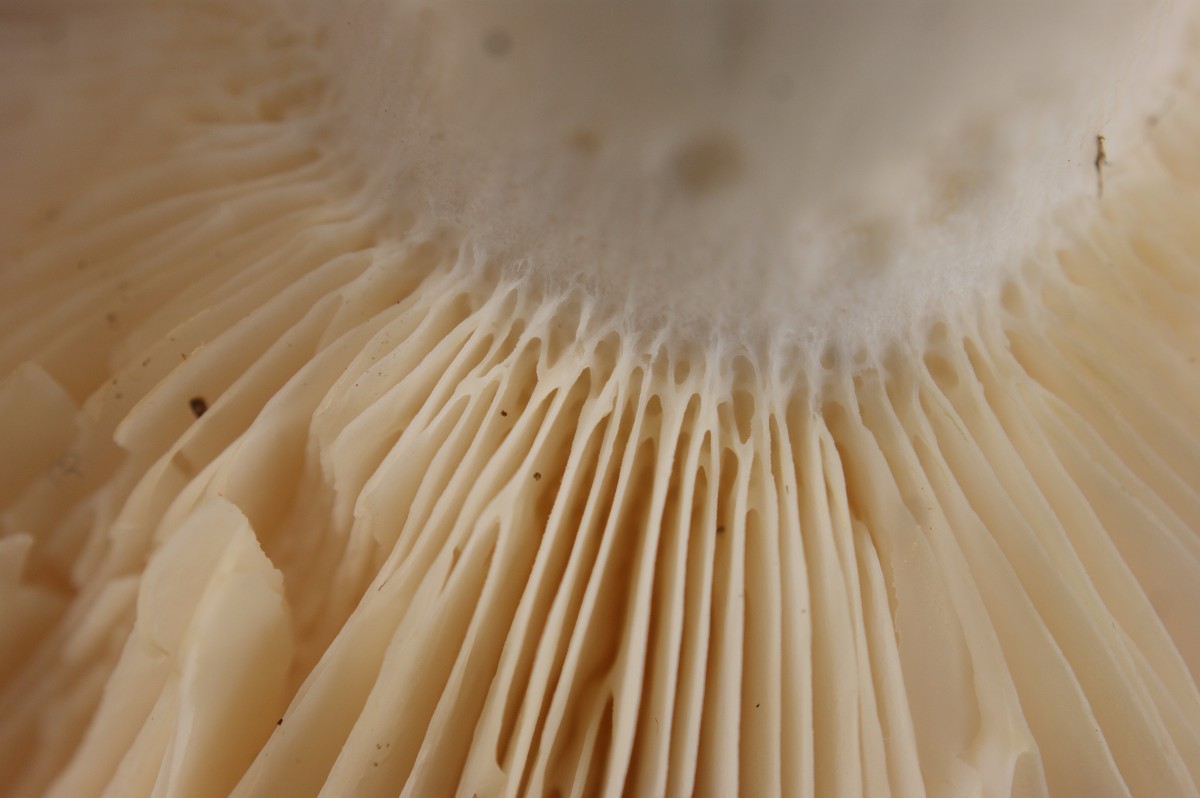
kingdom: Fungi
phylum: Basidiomycota
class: Agaricomycetes
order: Russulales
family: Russulaceae
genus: Russula
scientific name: Russula heterophylla
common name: gaffelbladet skørhat
